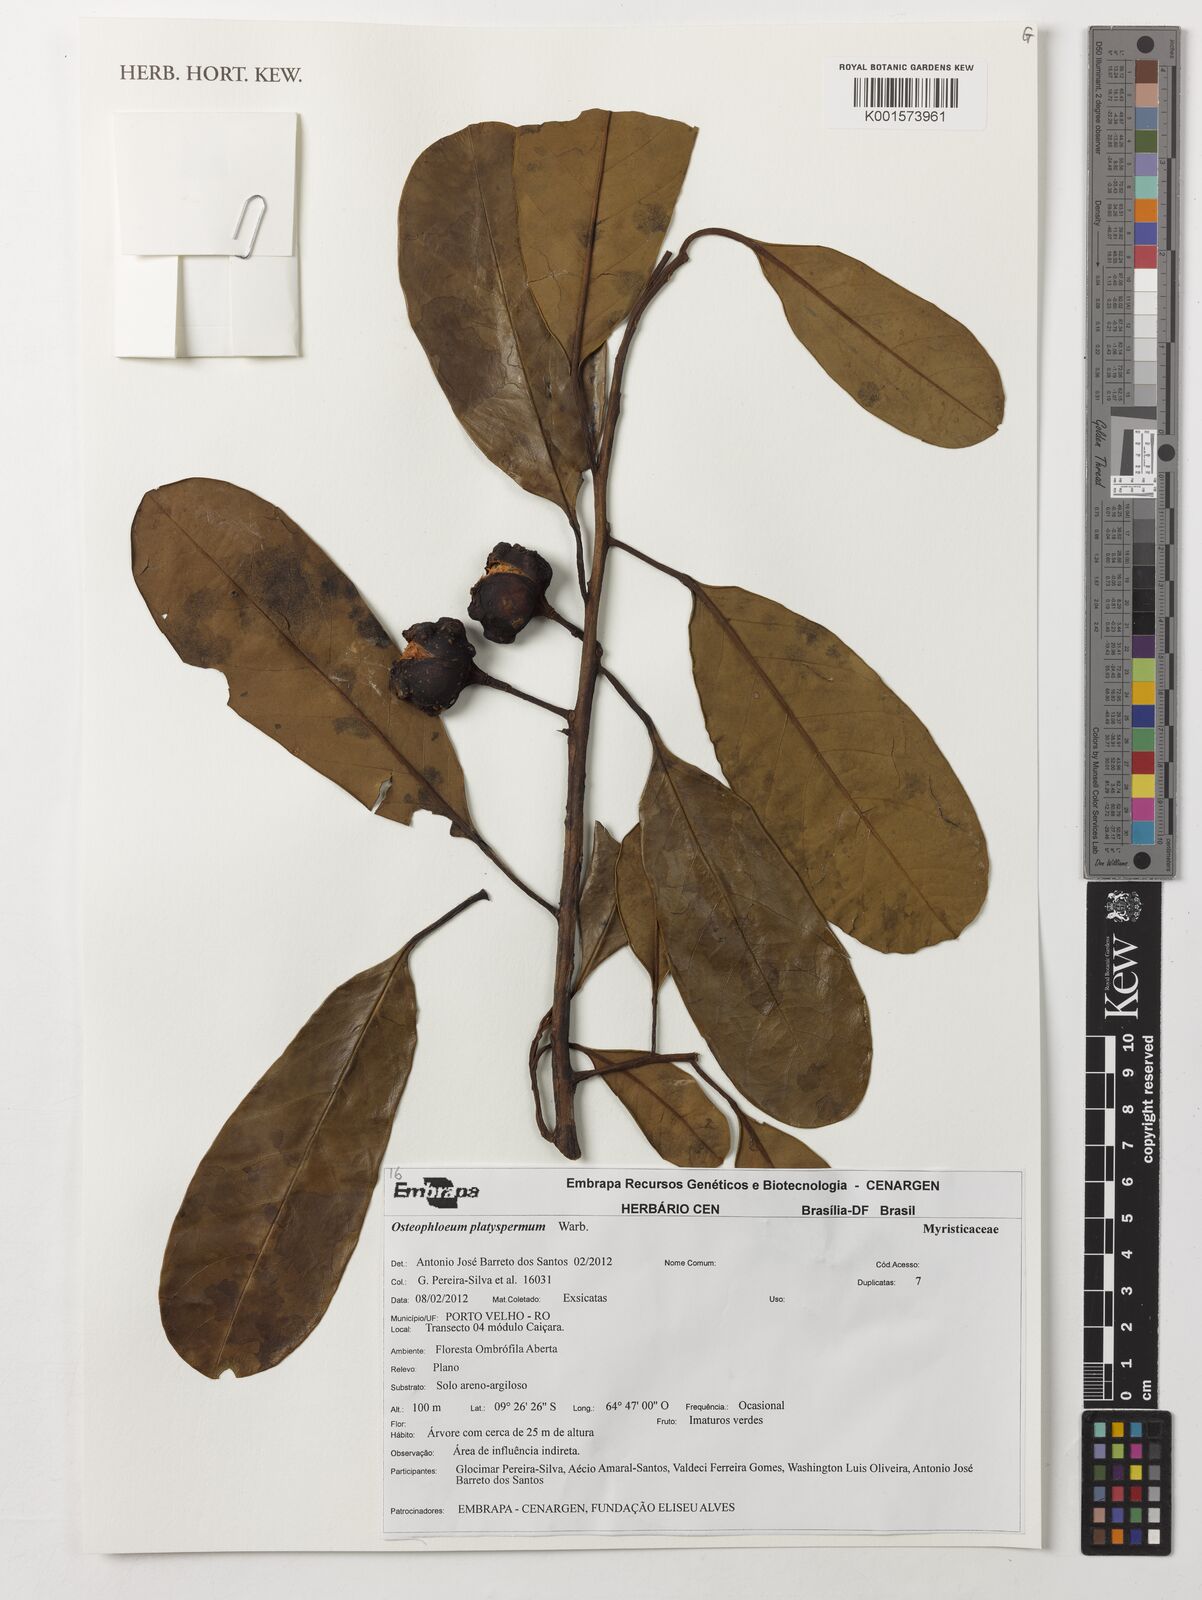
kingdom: Plantae
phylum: Tracheophyta
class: Magnoliopsida
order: Magnoliales
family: Myristicaceae
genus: Osteophloeum
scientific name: Osteophloeum platyspermum
